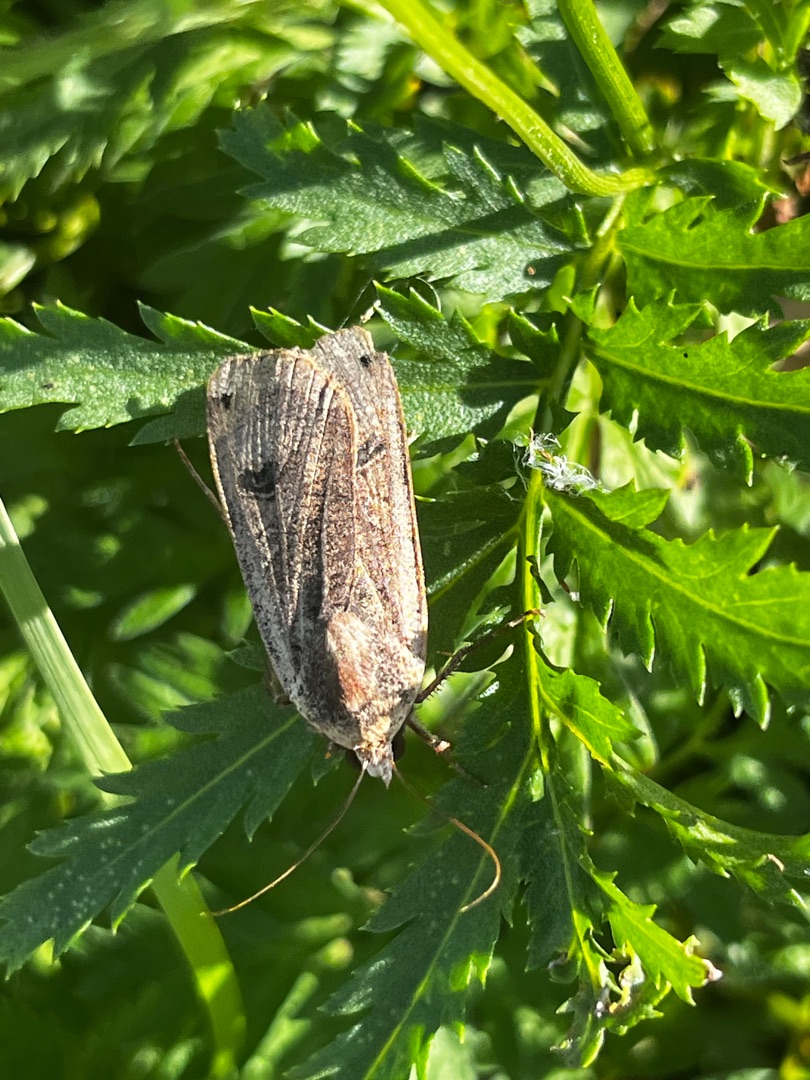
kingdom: Animalia
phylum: Arthropoda
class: Insecta
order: Lepidoptera
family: Noctuidae
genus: Noctua
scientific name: Noctua pronuba
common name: Stor smutugle
